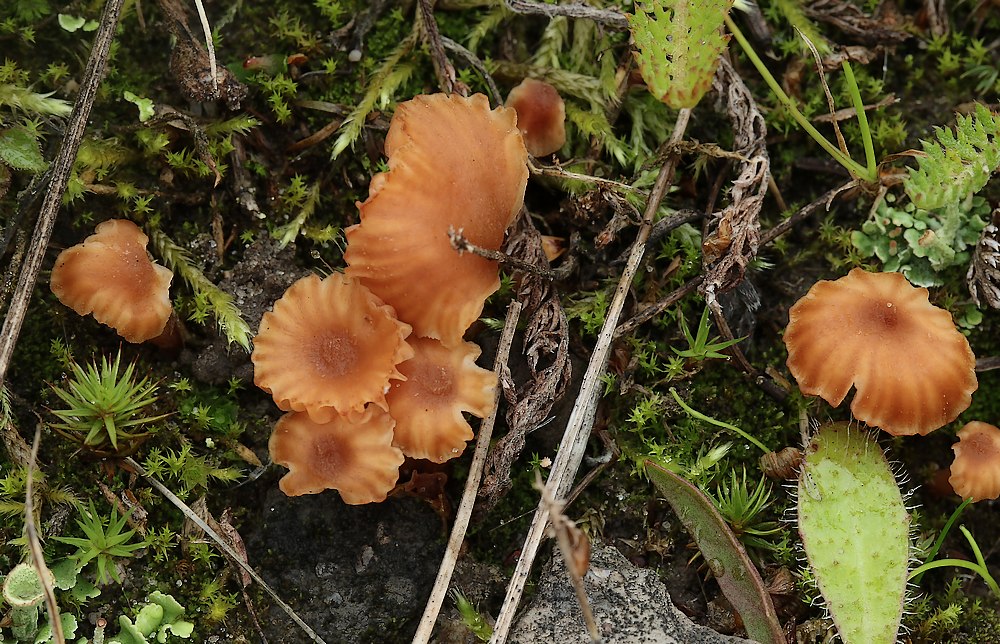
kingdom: Fungi
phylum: Basidiomycota
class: Agaricomycetes
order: Agaricales
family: Hydnangiaceae
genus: Laccaria
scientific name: Laccaria tortilis
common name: krybende ametysthat
